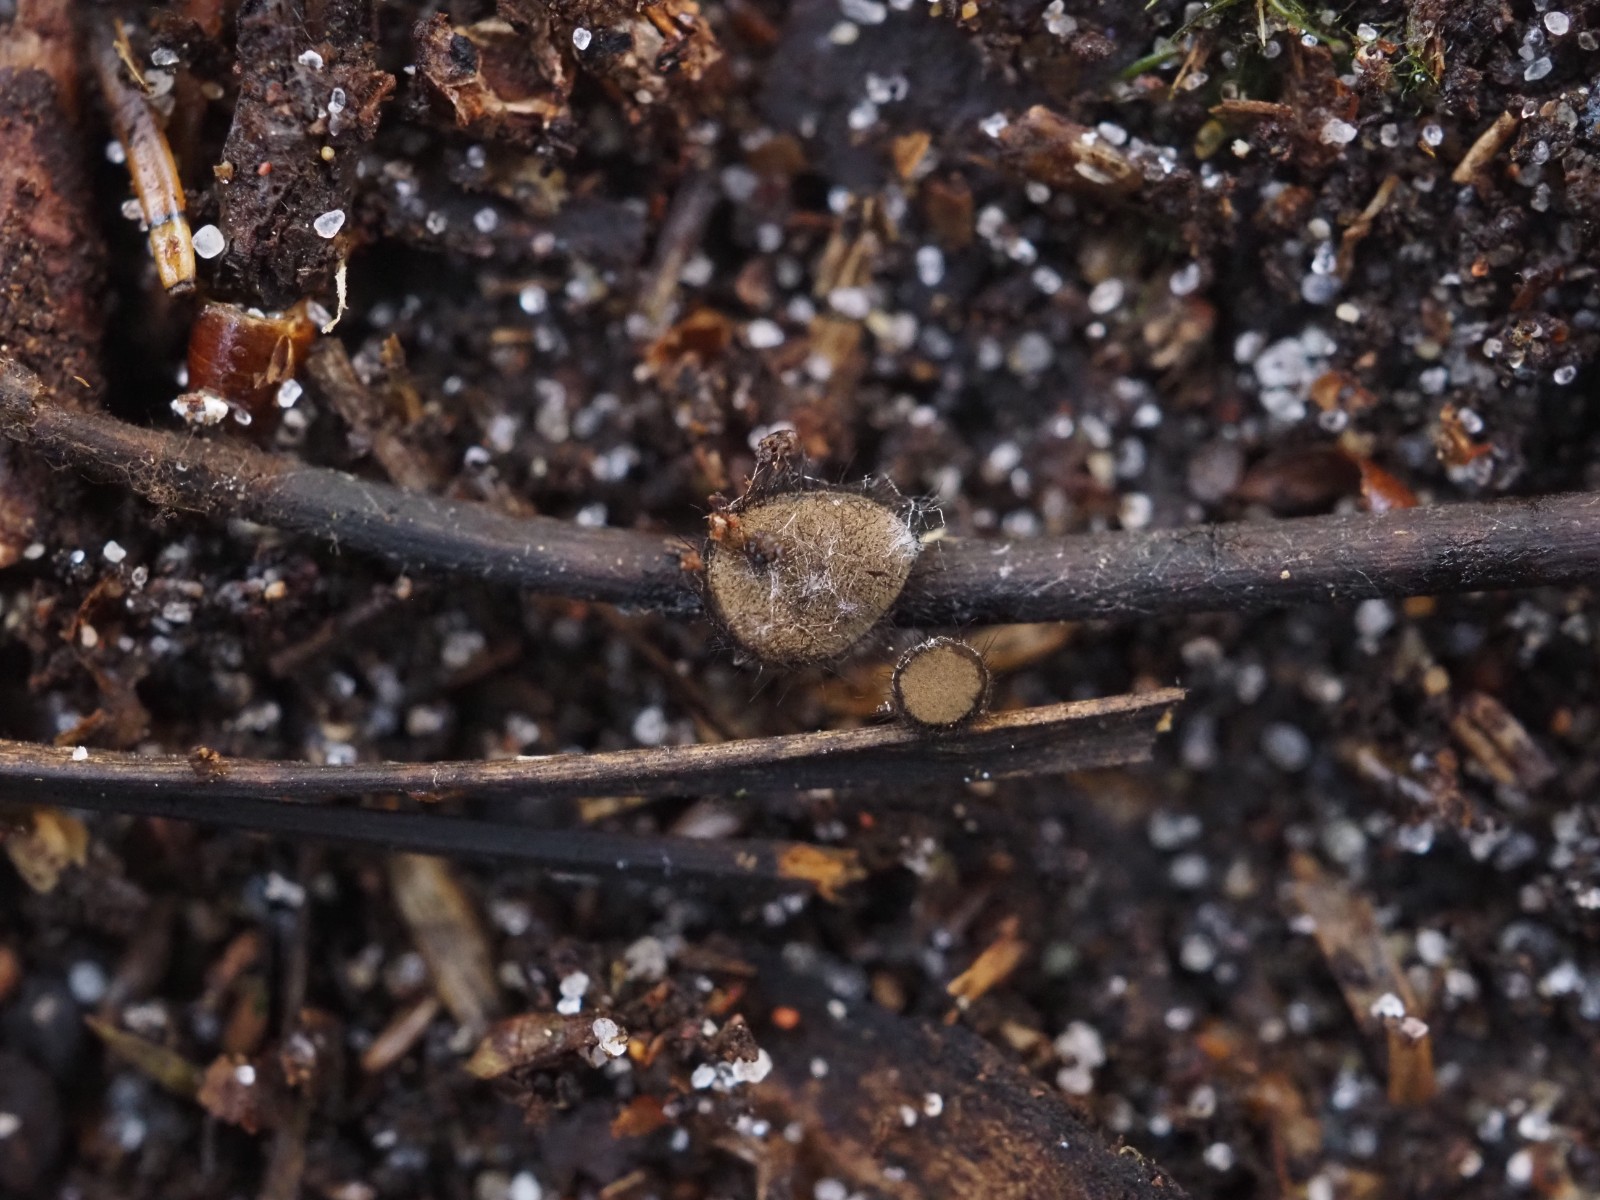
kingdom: Fungi
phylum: Ascomycota
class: Pezizomycetes
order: Pezizales
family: Chorioactidaceae
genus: Desmazierella
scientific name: Desmazierella acicola
